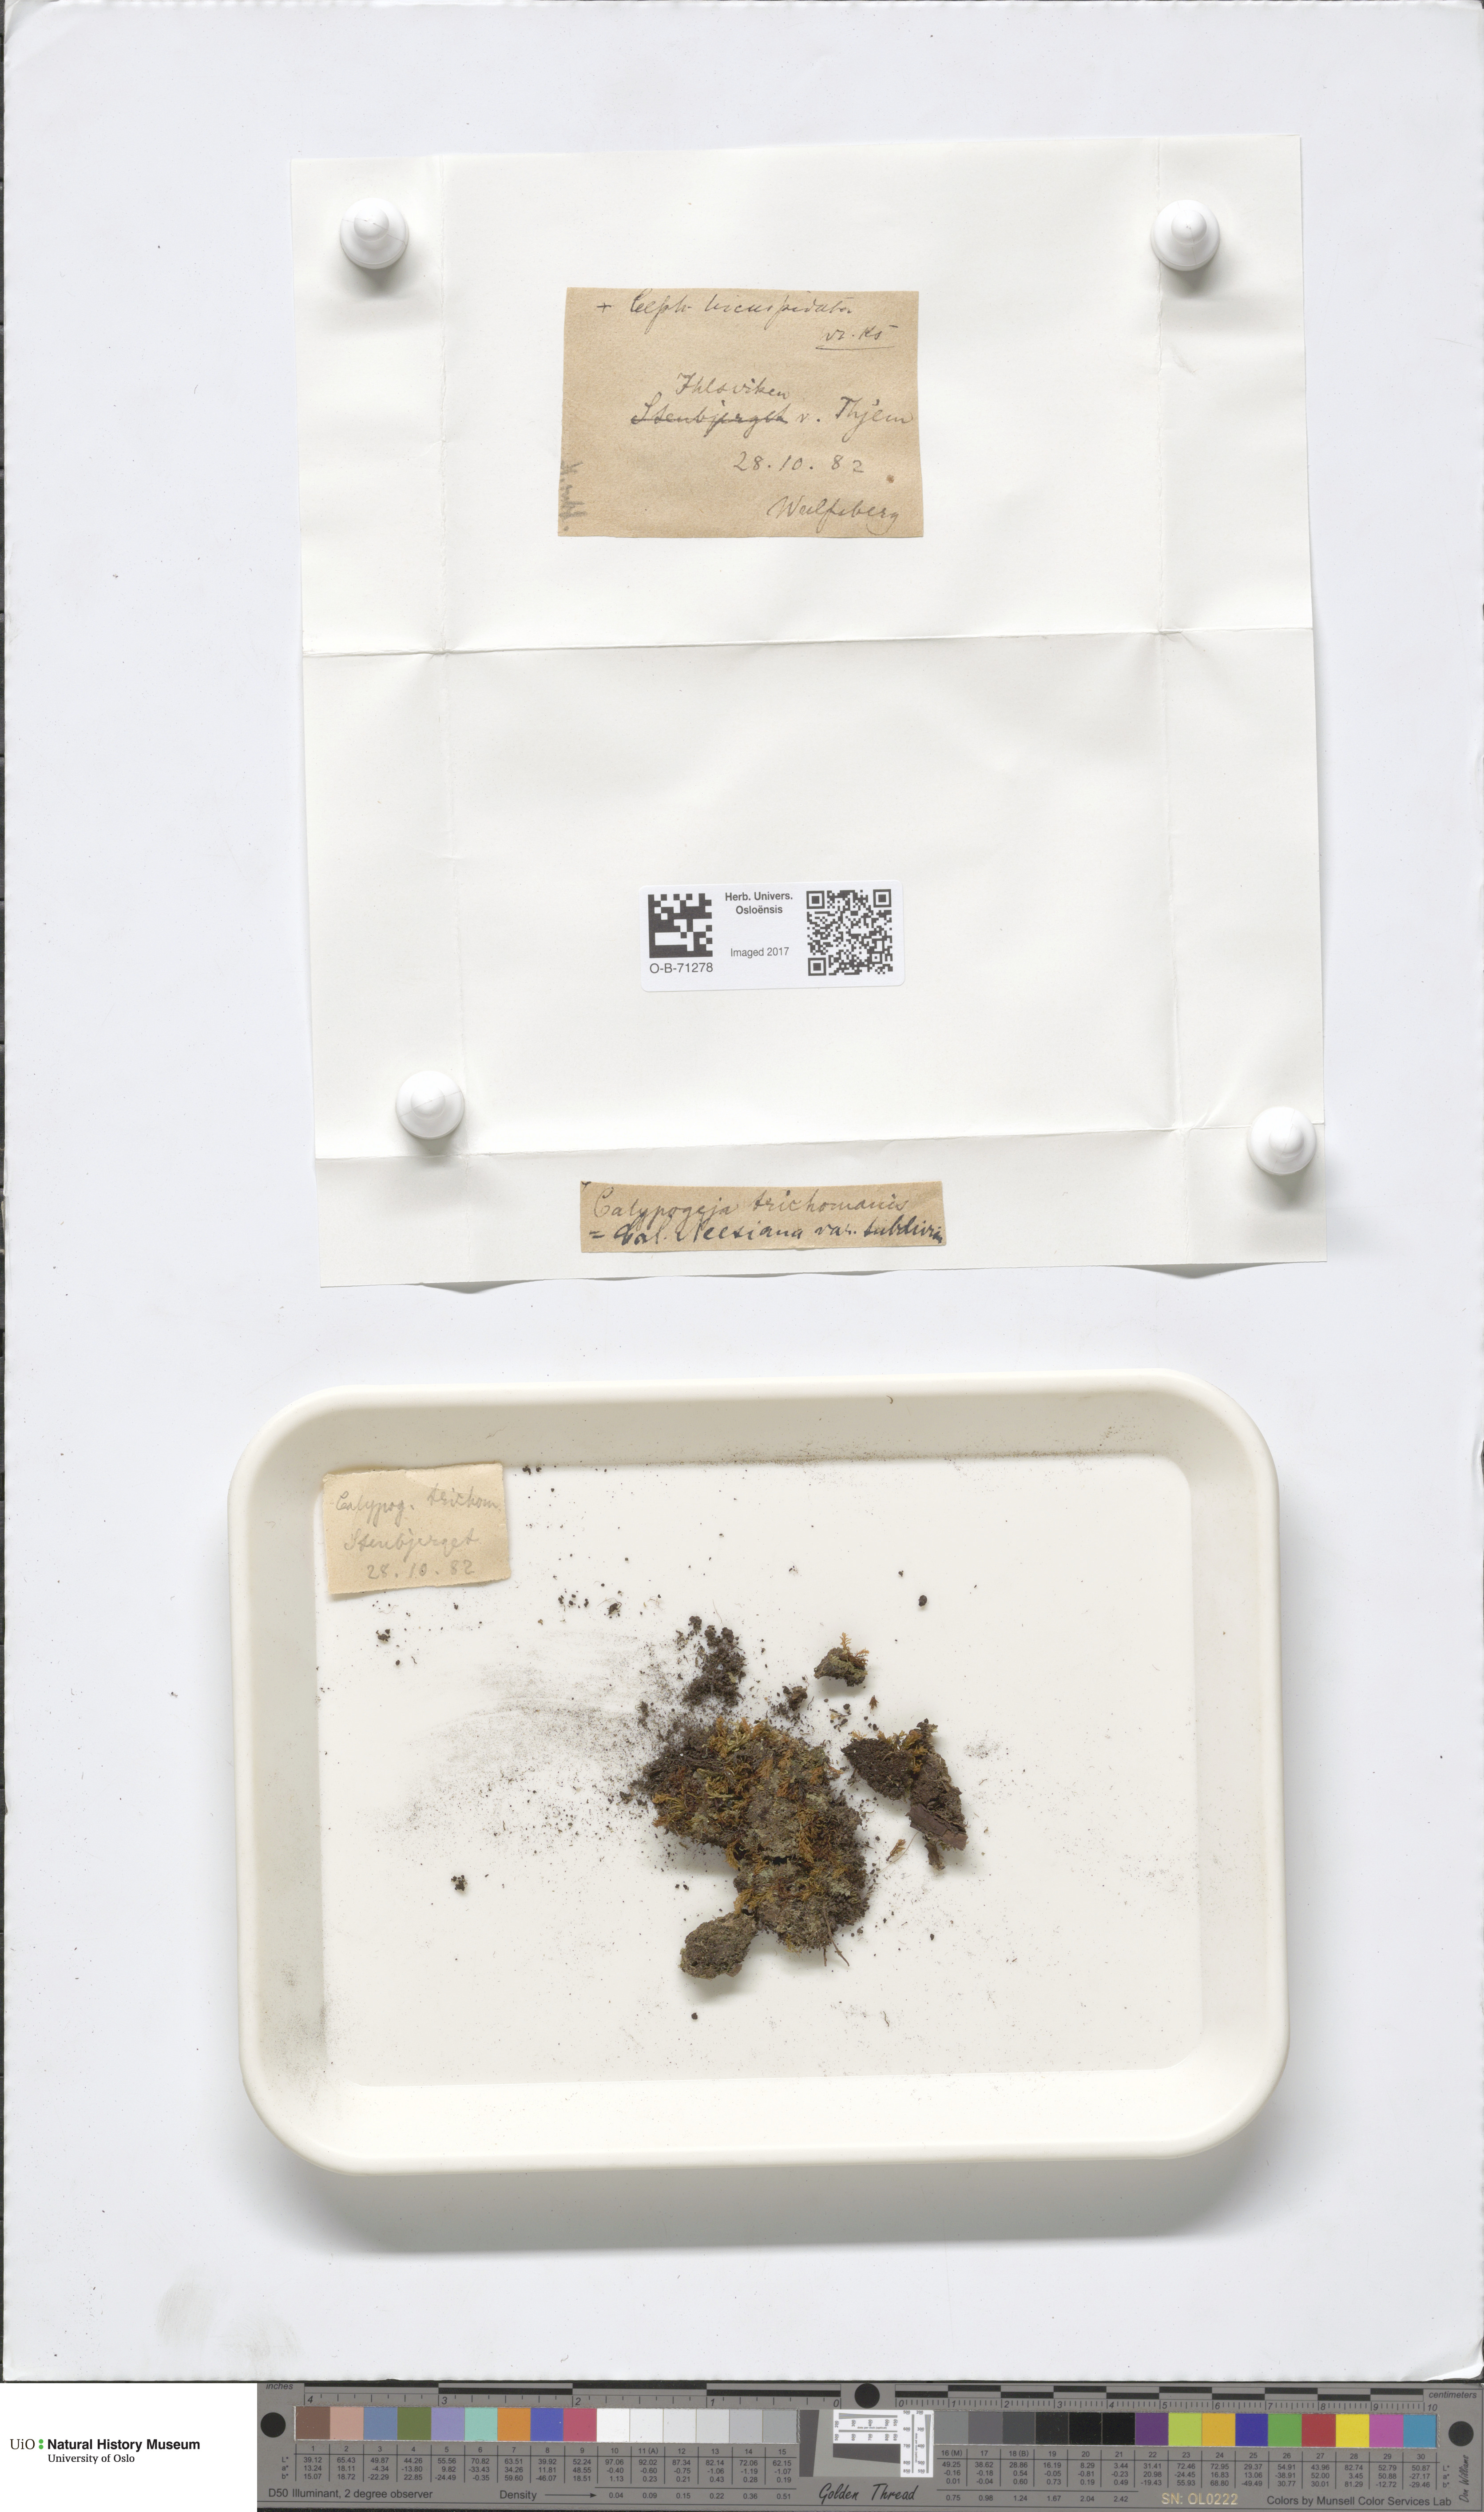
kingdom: Plantae
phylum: Marchantiophyta
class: Jungermanniopsida
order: Jungermanniales
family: Calypogeiaceae
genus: Calypogeia
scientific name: Calypogeia neesiana
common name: Nees  pouchwort
